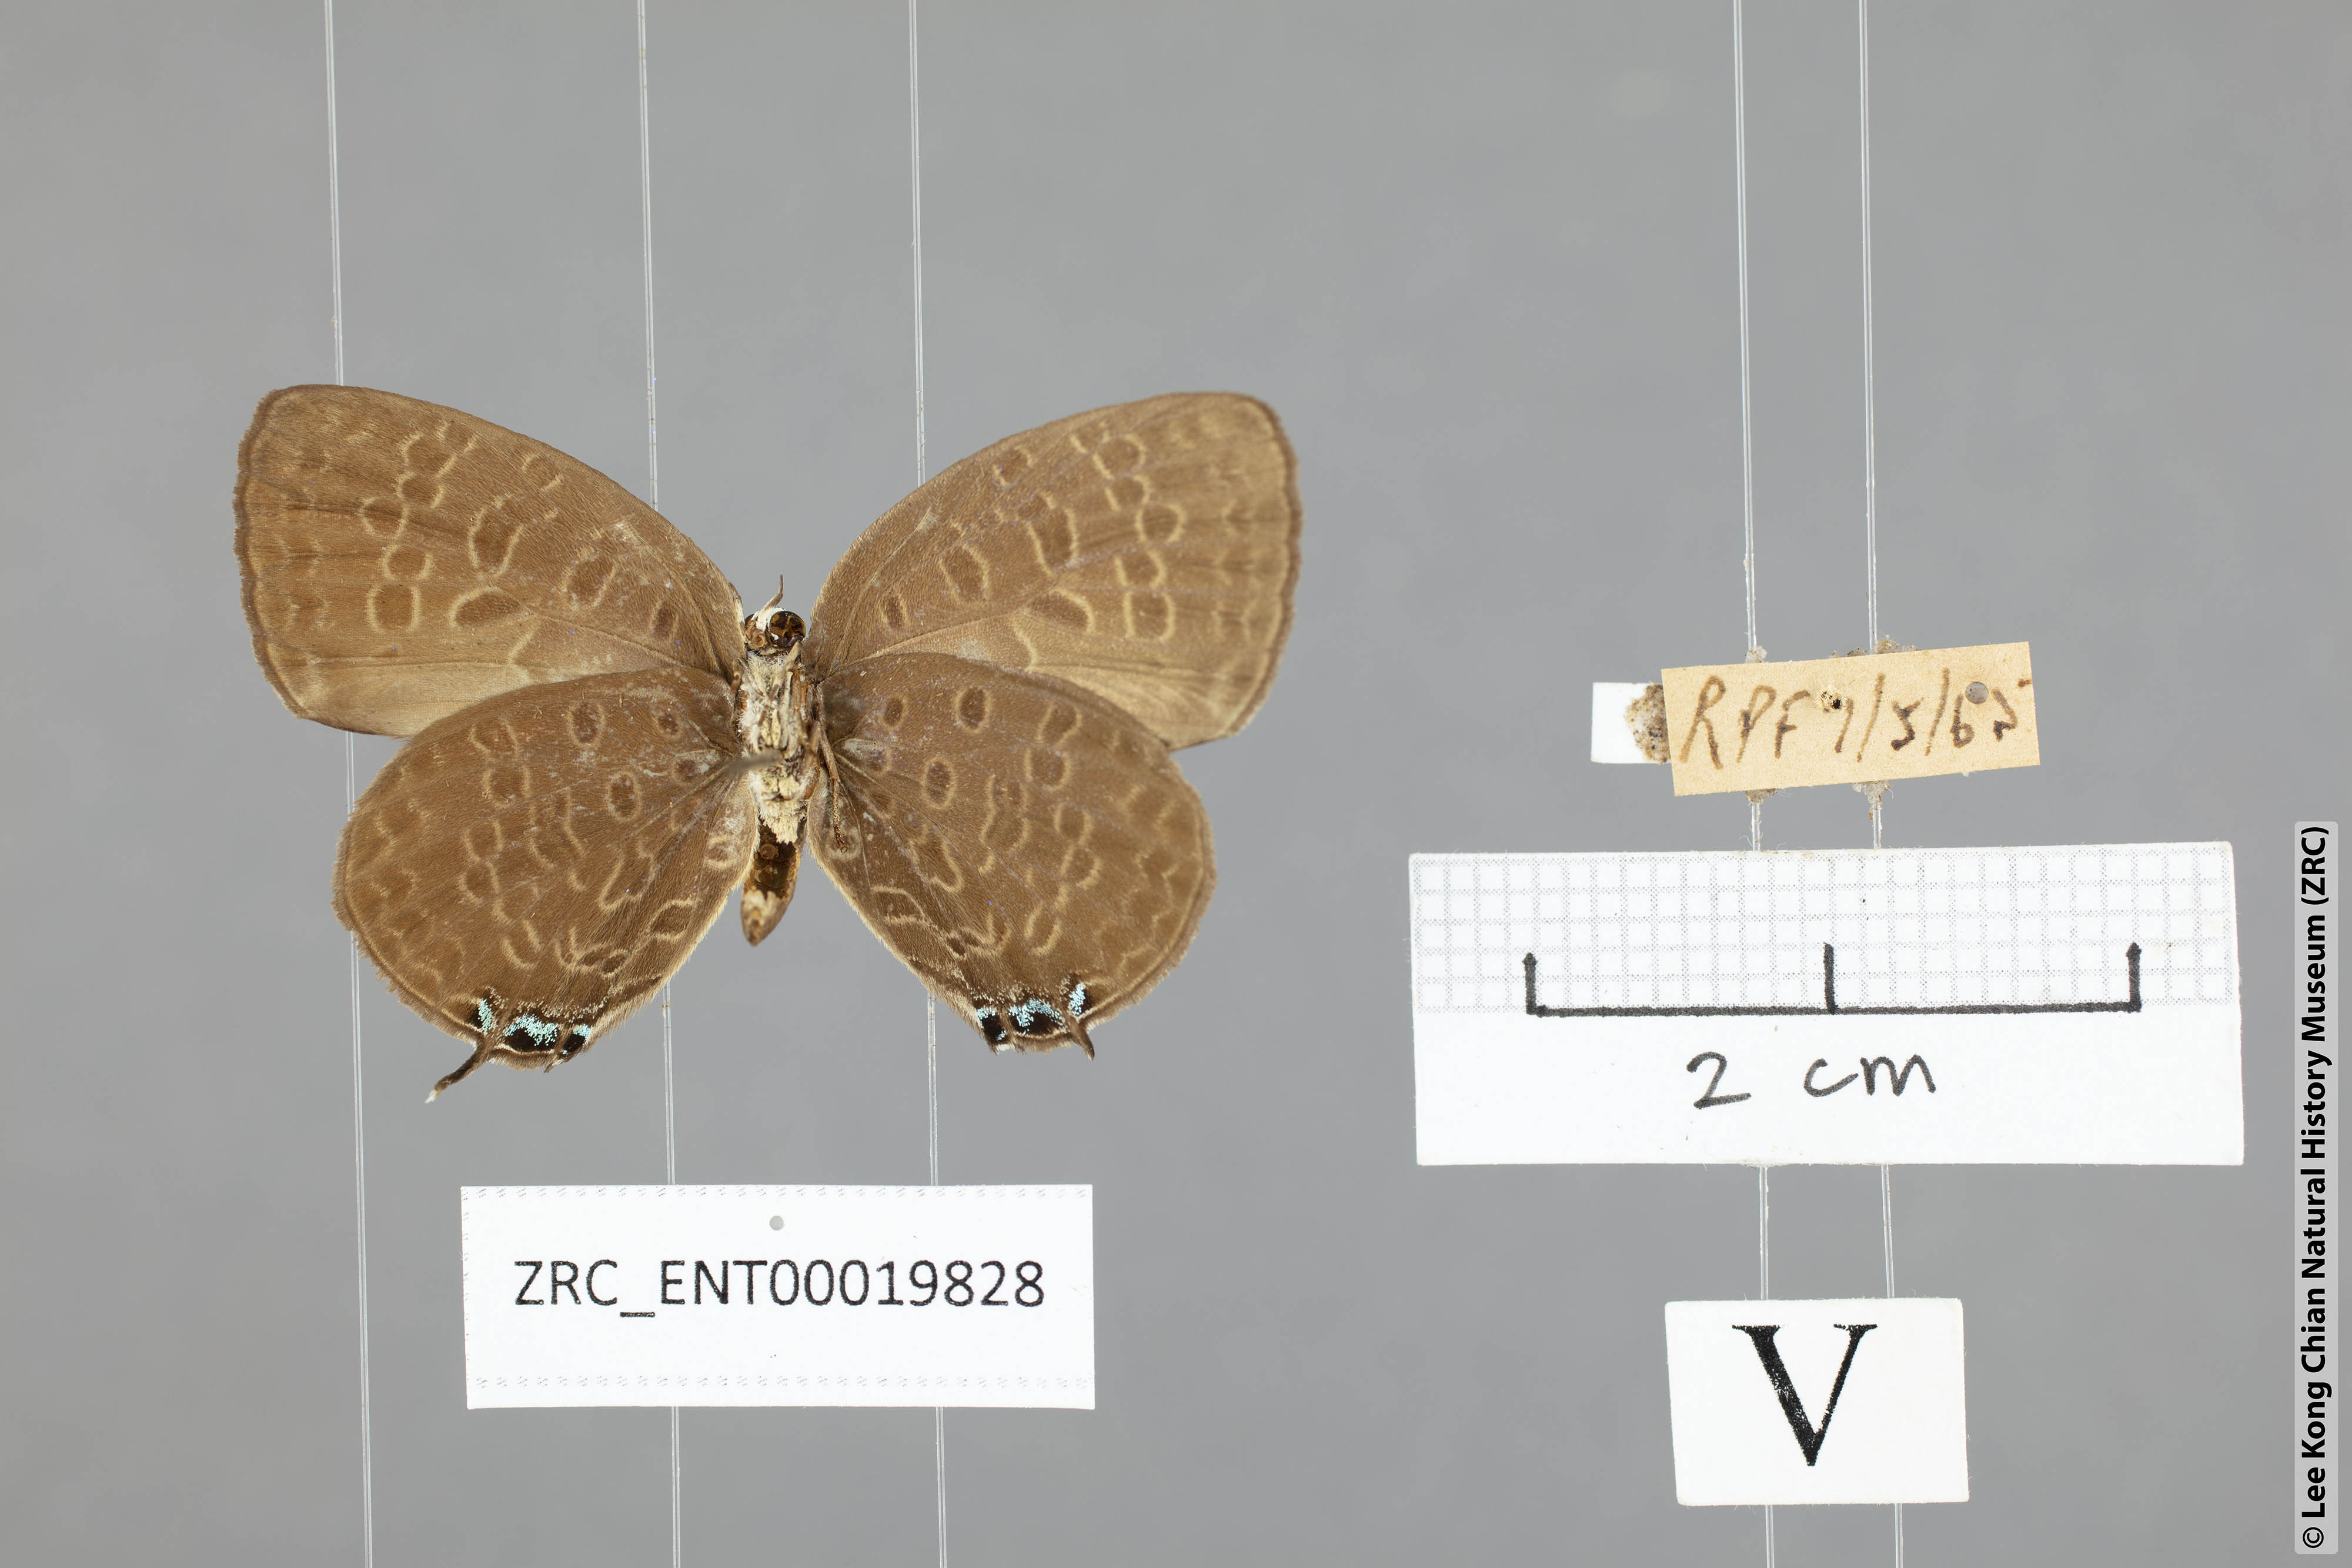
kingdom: Animalia
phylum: Arthropoda
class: Insecta
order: Lepidoptera
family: Lycaenidae
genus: Arhopala
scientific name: Arhopala pseudomuta
